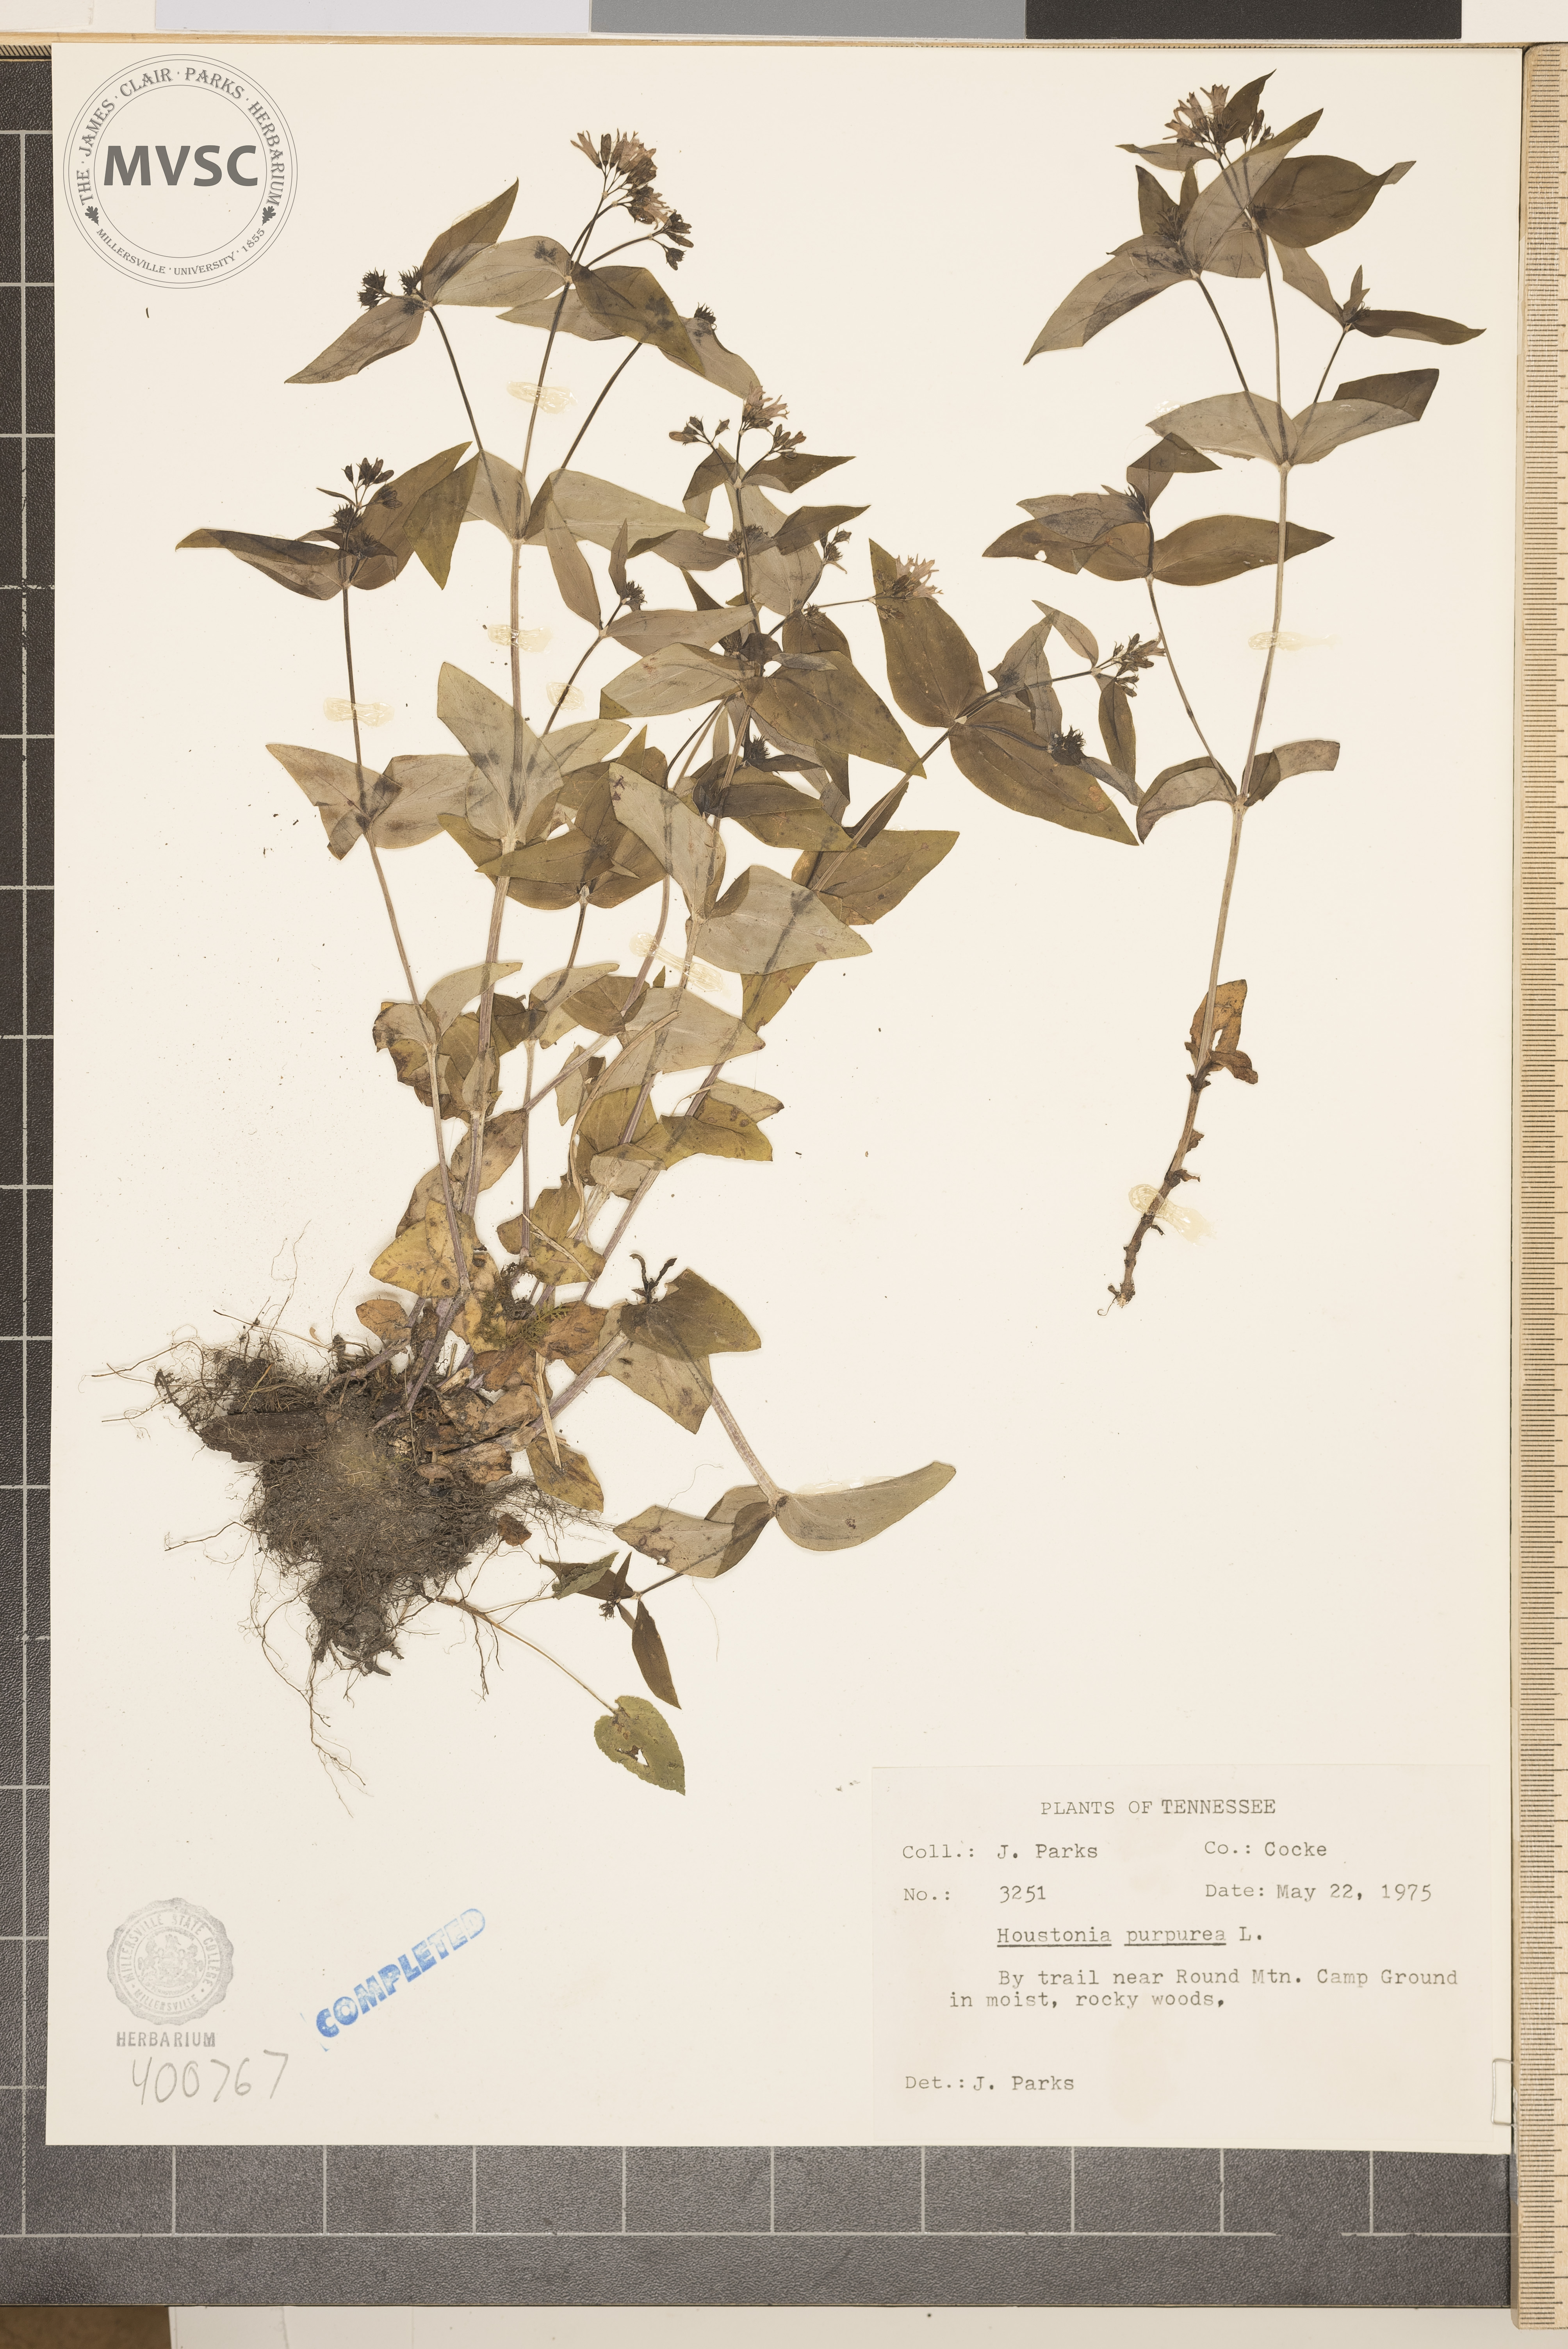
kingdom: Plantae
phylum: Tracheophyta
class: Magnoliopsida
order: Gentianales
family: Rubiaceae
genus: Houstonia
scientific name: Houstonia purpurea
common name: bluets
